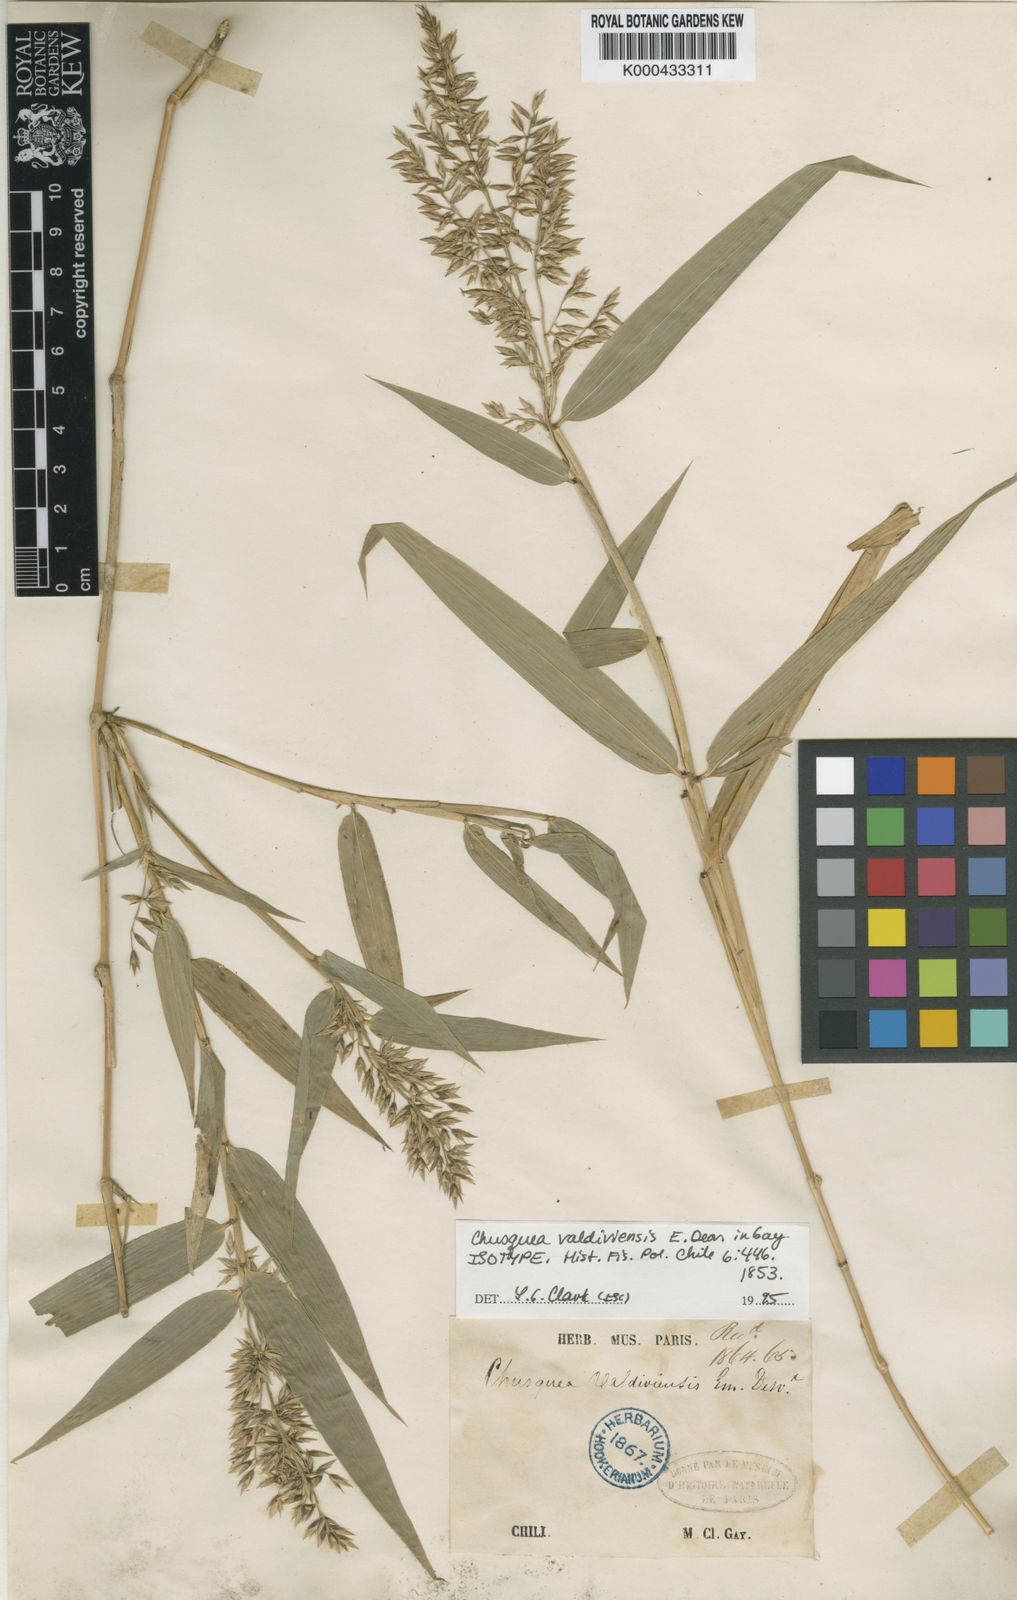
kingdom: Plantae
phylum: Tracheophyta
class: Liliopsida
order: Poales
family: Poaceae
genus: Chusquea
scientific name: Chusquea valdiviensis
